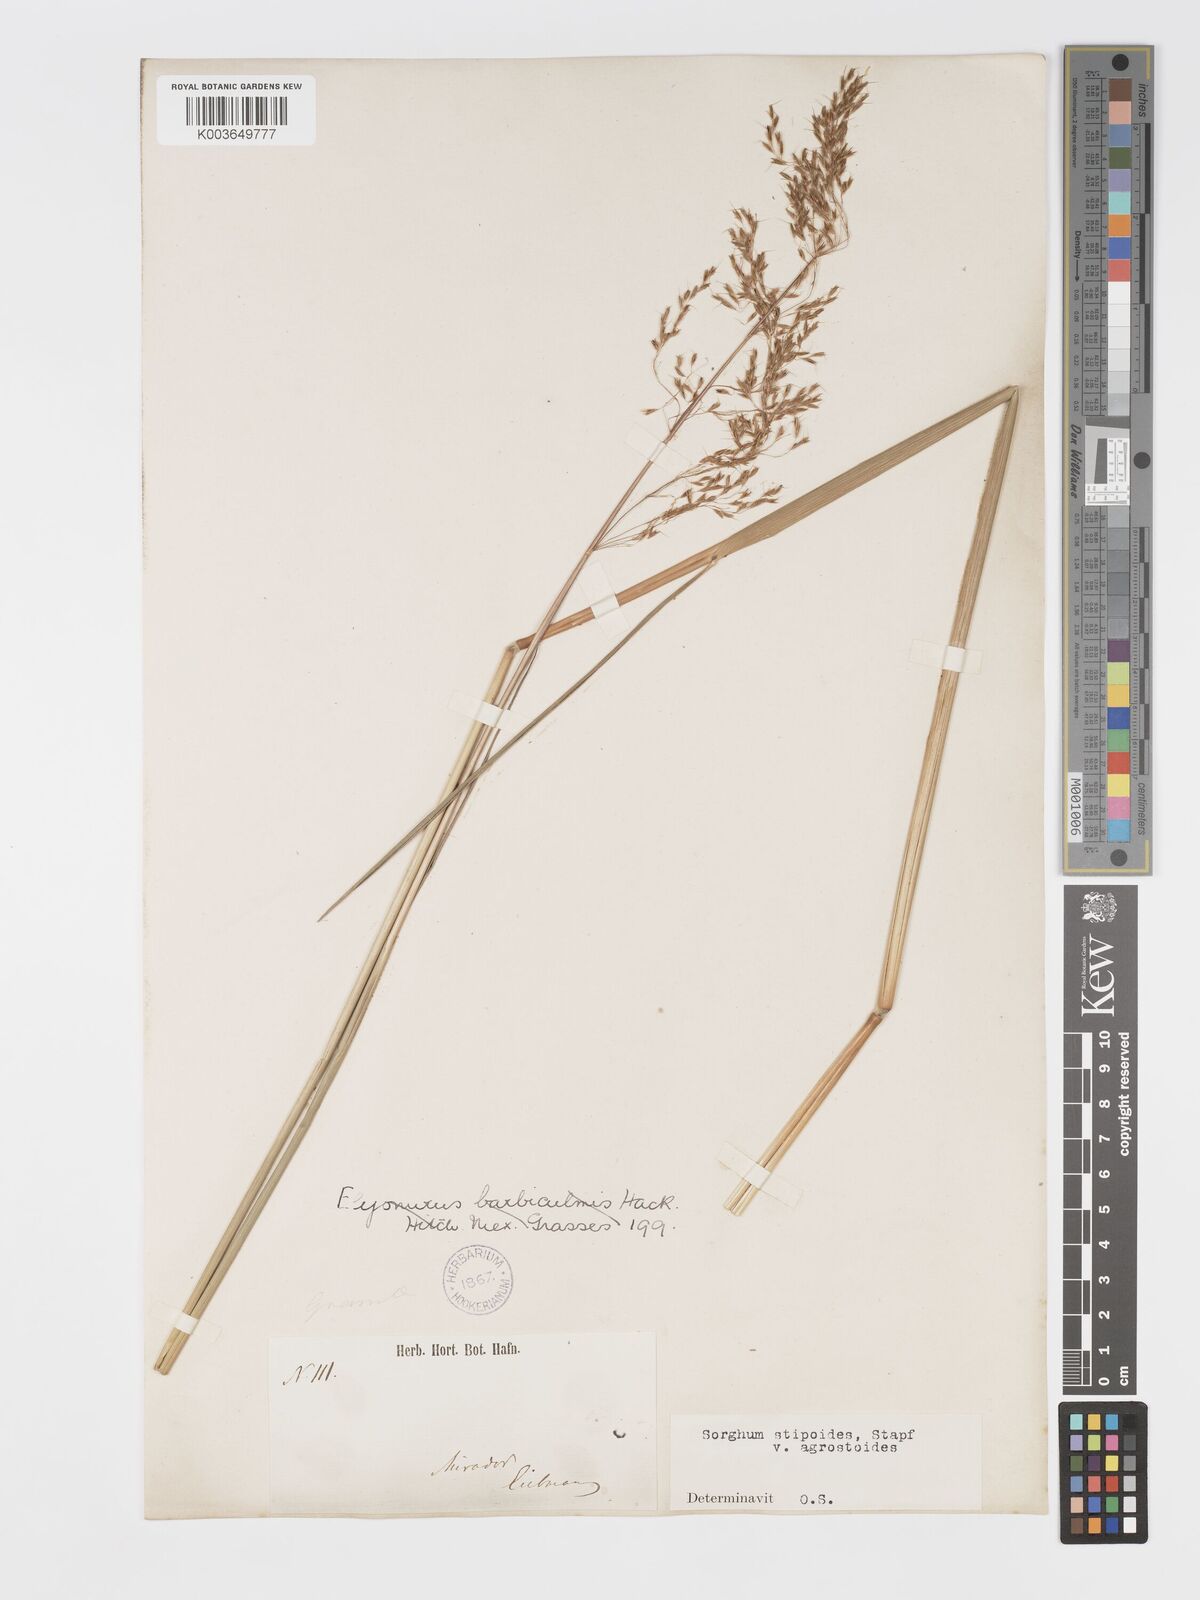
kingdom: Plantae
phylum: Tracheophyta
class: Liliopsida
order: Poales
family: Poaceae
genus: Sorghastrum
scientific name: Sorghastrum setosum
